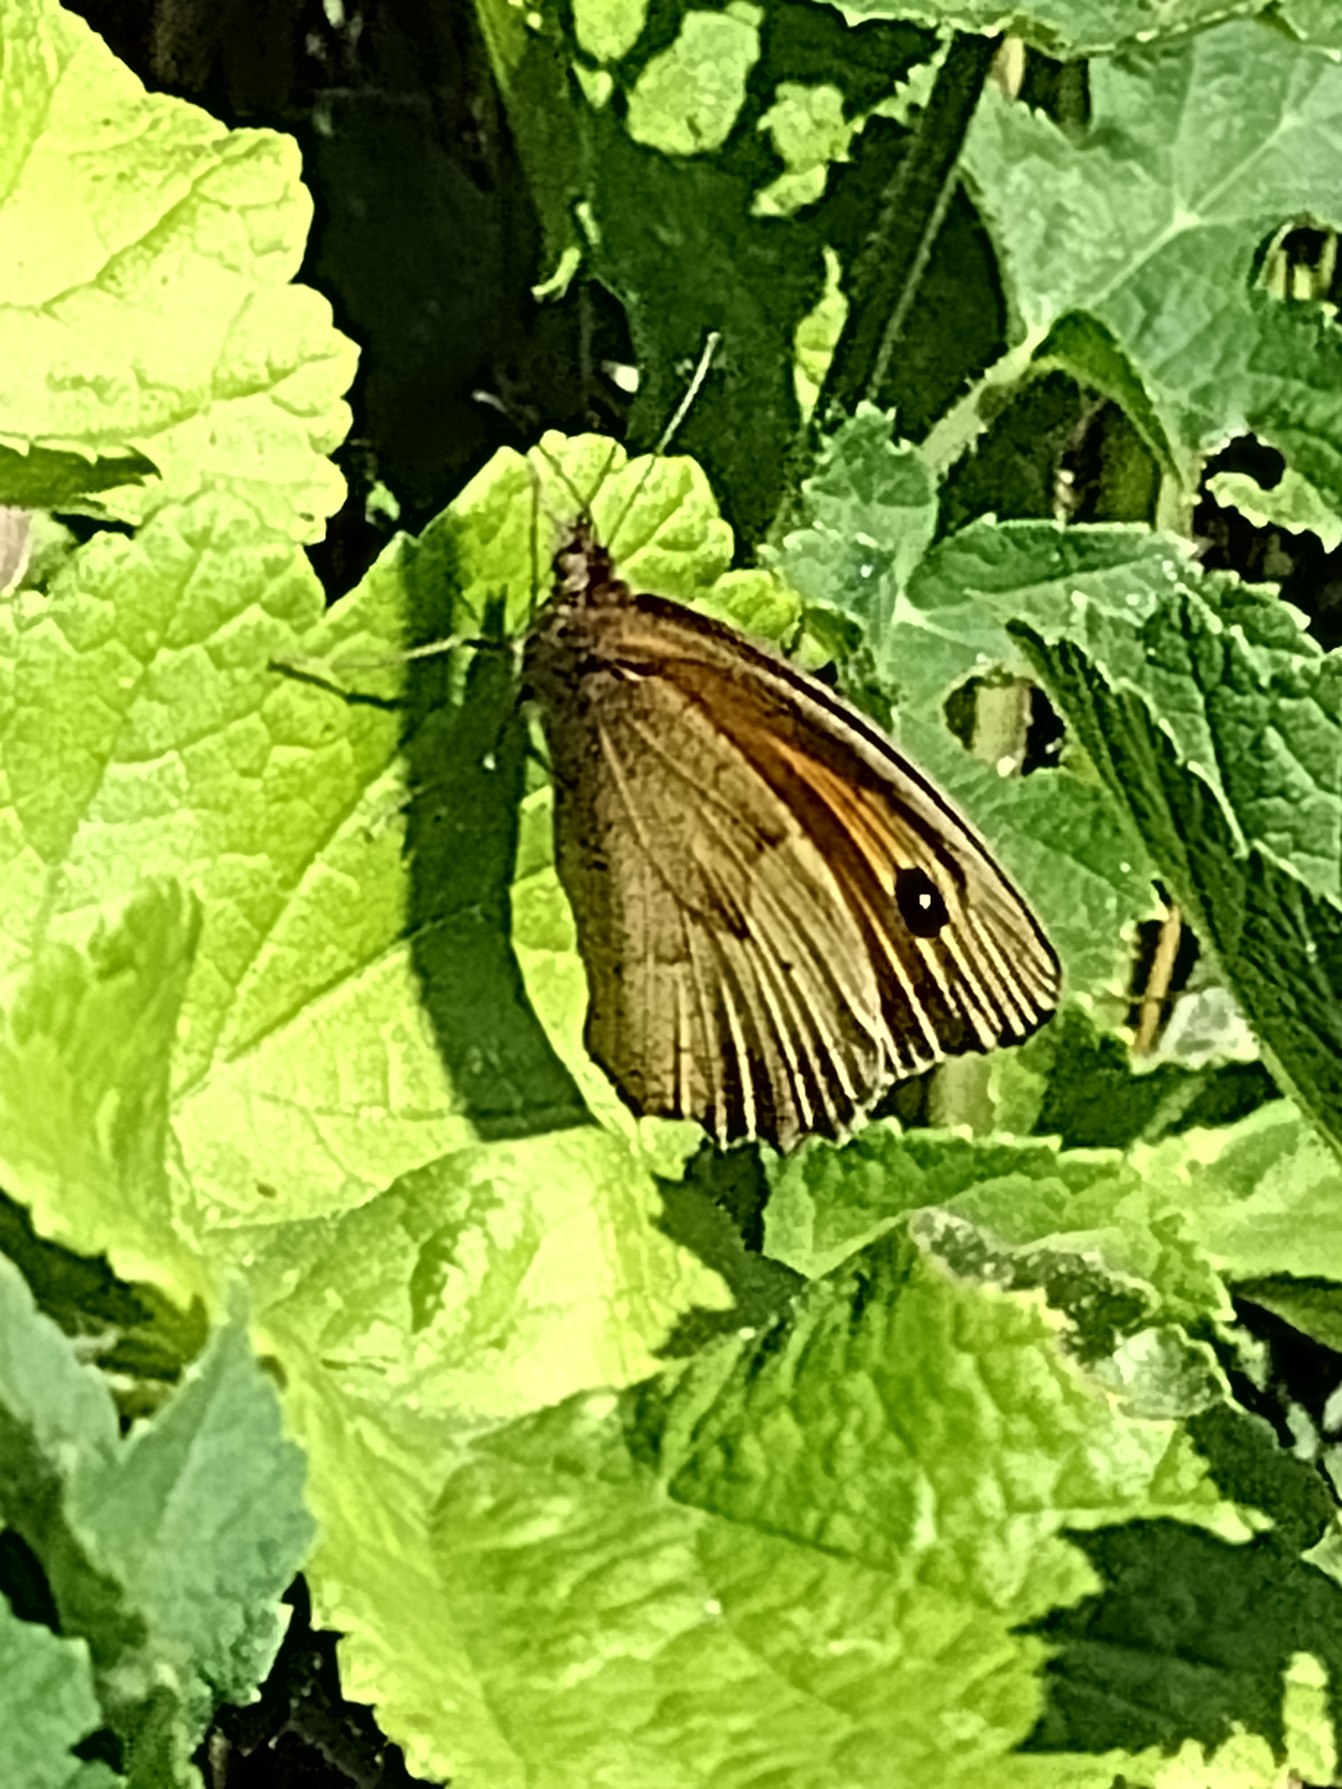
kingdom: Animalia
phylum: Arthropoda
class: Insecta
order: Lepidoptera
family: Nymphalidae
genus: Maniola
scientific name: Maniola jurtina
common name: Græsrandøje
